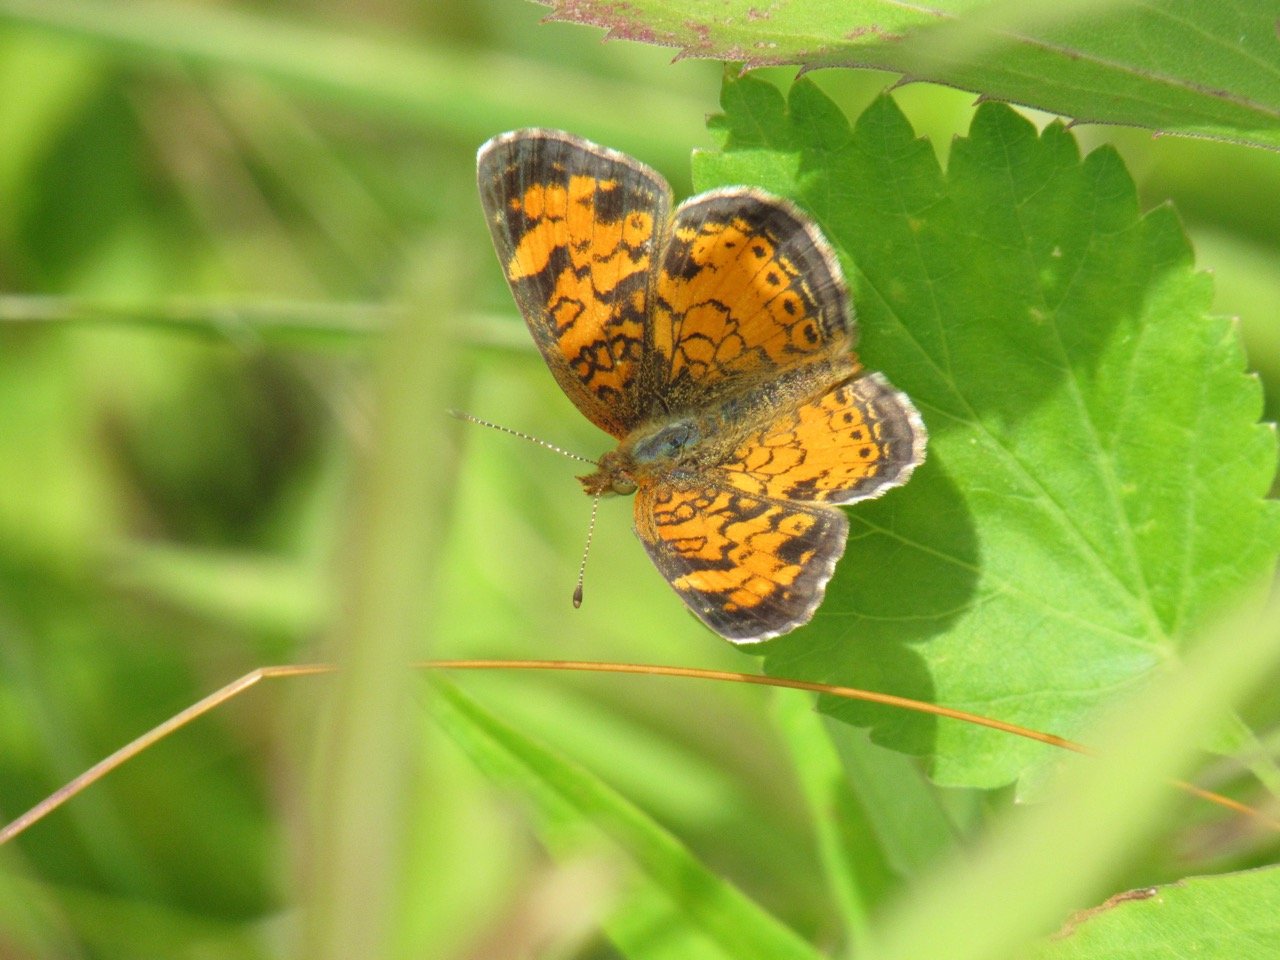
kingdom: Animalia
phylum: Arthropoda
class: Insecta
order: Lepidoptera
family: Nymphalidae
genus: Phyciodes
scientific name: Phyciodes tharos
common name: Pearl Crescent
